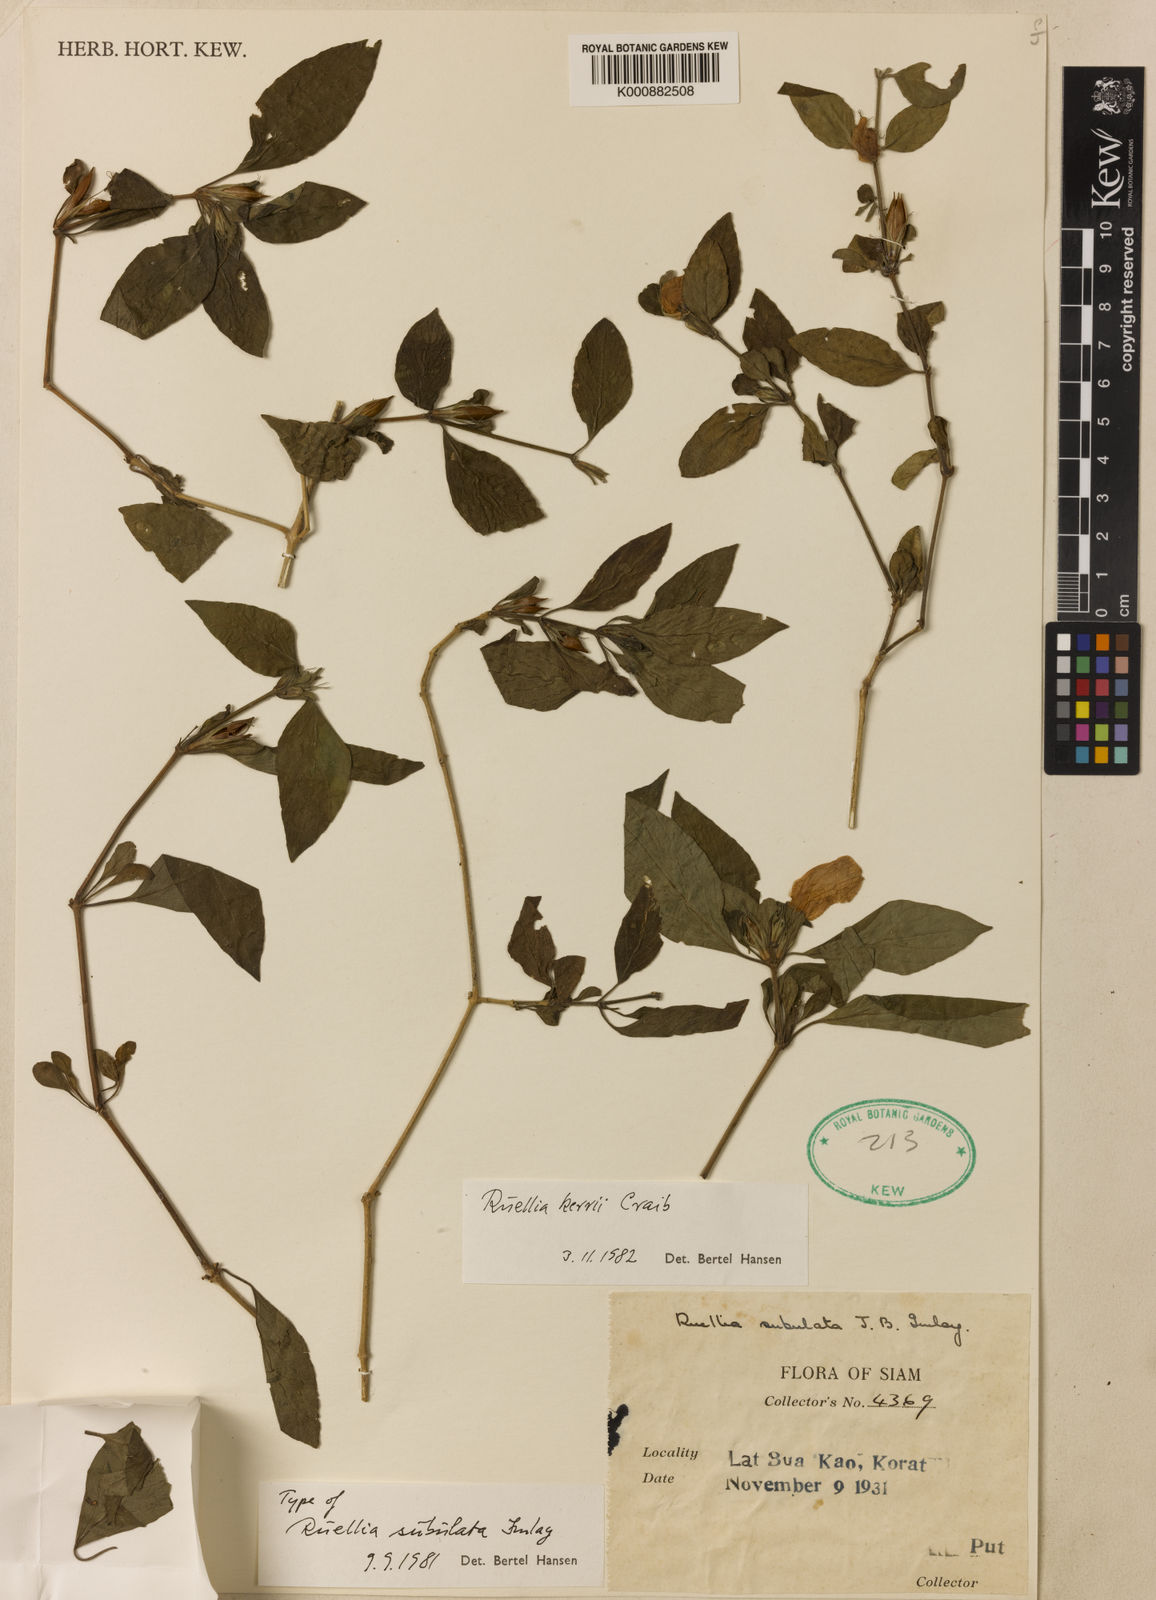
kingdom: Plantae
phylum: Tracheophyta
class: Magnoliopsida
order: Lamiales
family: Acanthaceae
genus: Ruellia
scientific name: Ruellia kerrii
